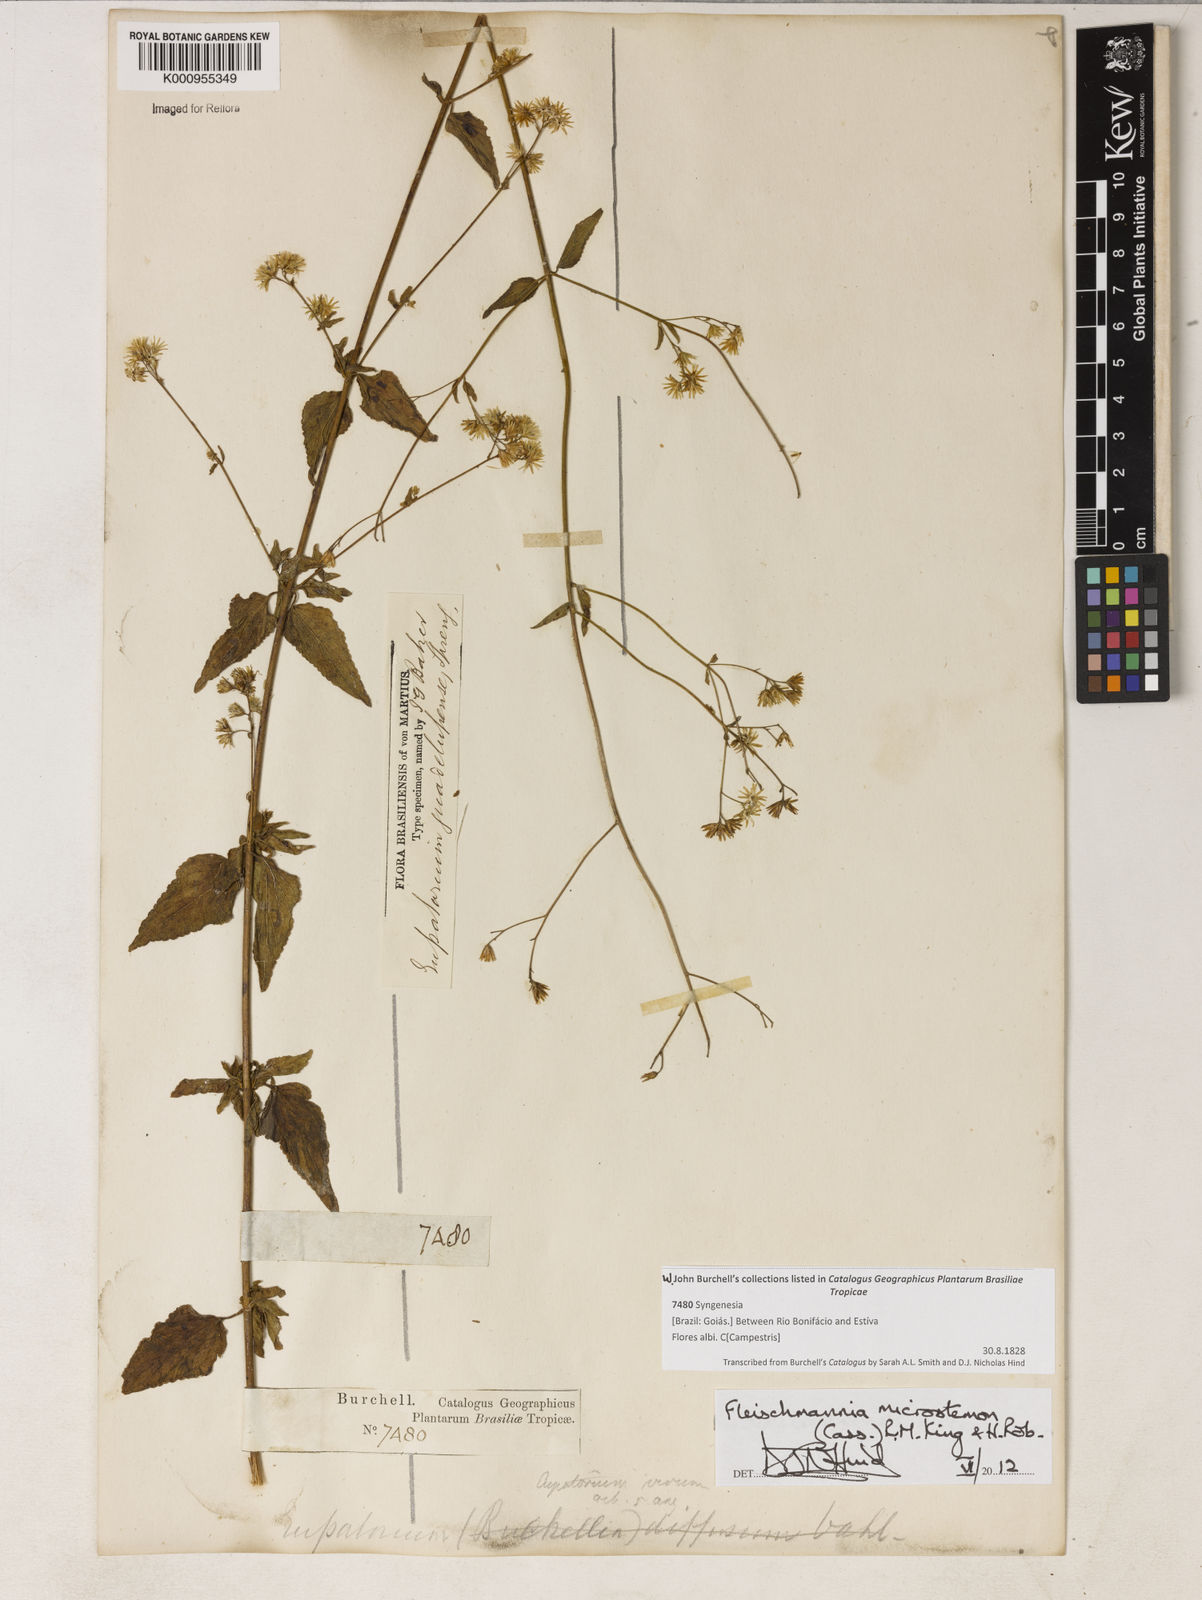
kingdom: Plantae
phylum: Tracheophyta
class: Magnoliopsida
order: Asterales
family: Asteraceae
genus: Fleischmannia
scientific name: Fleischmannia microstemon
